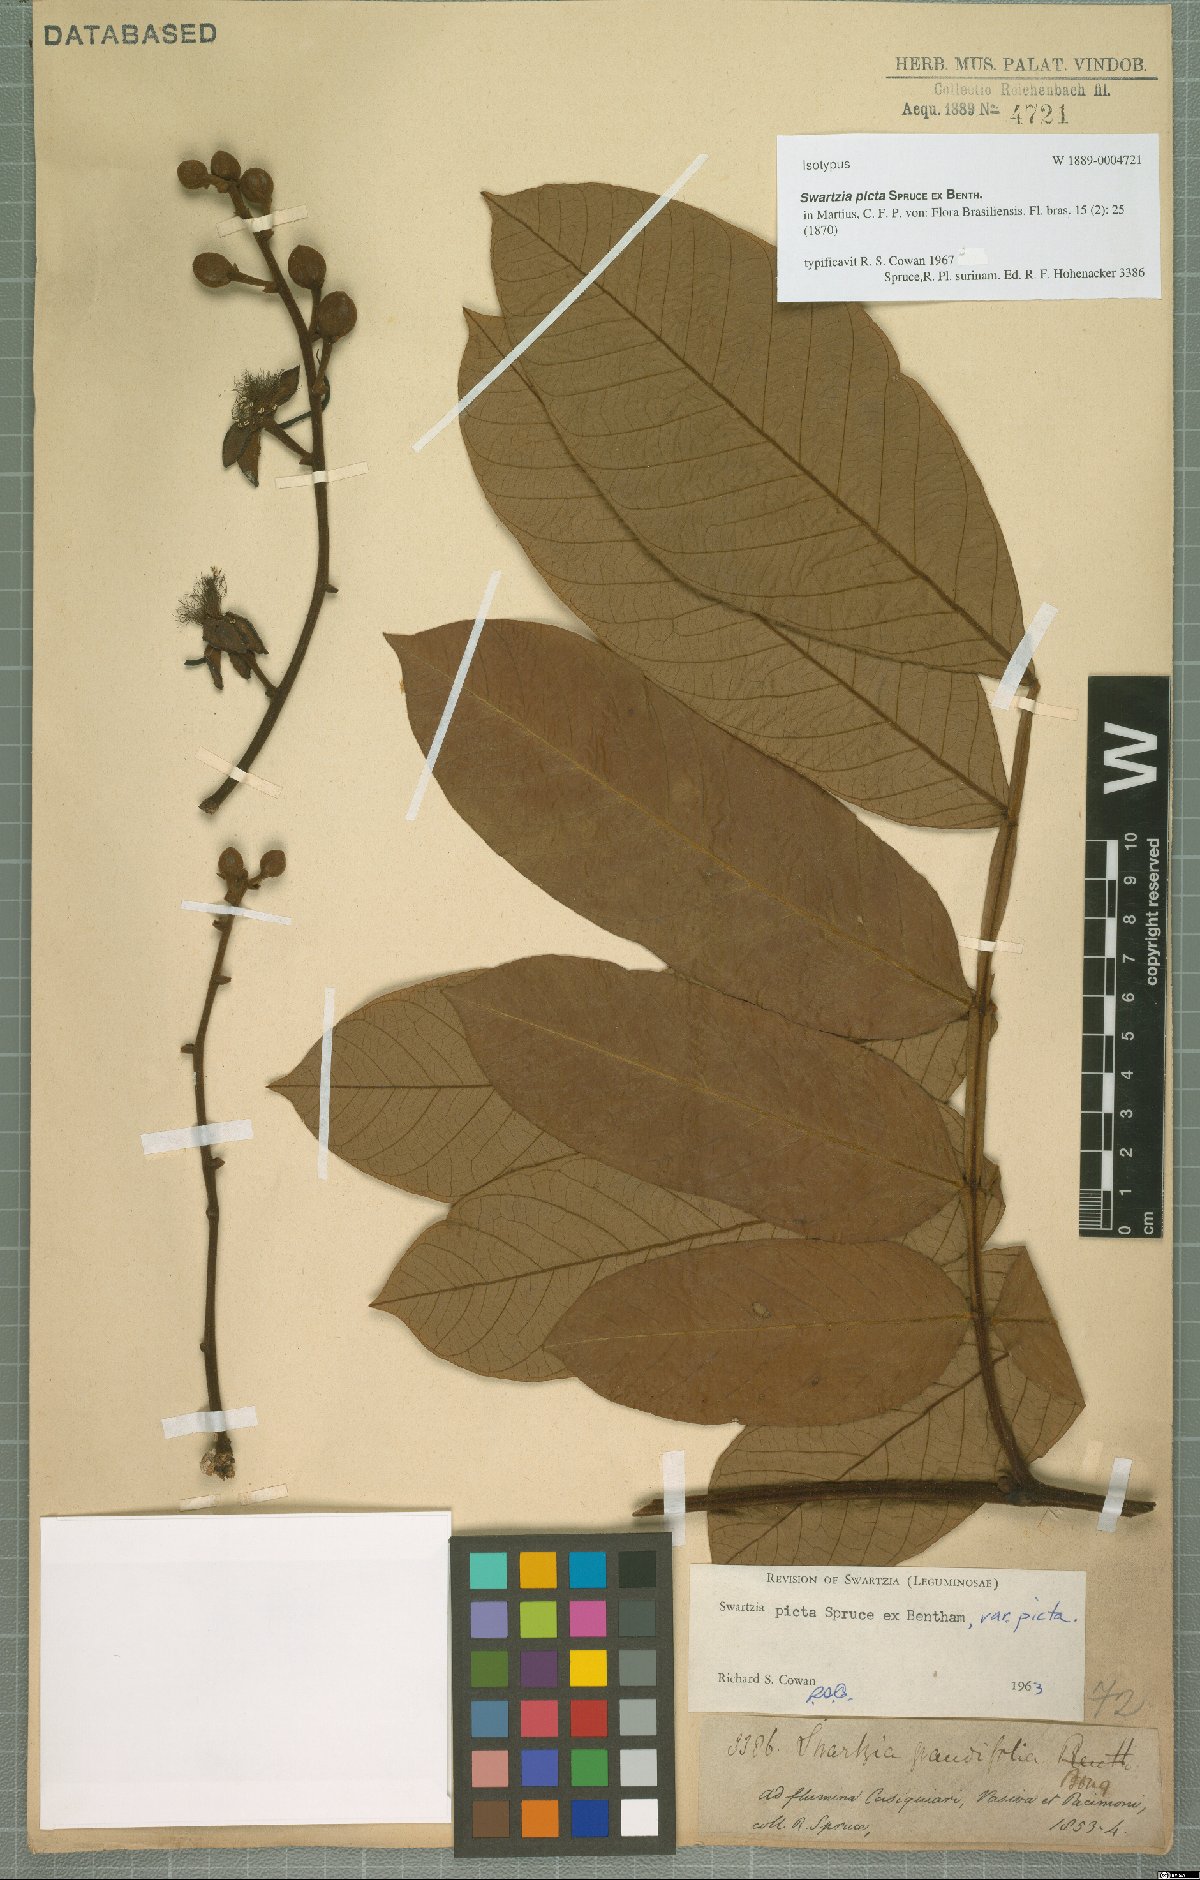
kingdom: Plantae
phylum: Tracheophyta
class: Magnoliopsida
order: Fabales
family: Fabaceae
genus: Swartzia
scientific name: Swartzia picta
